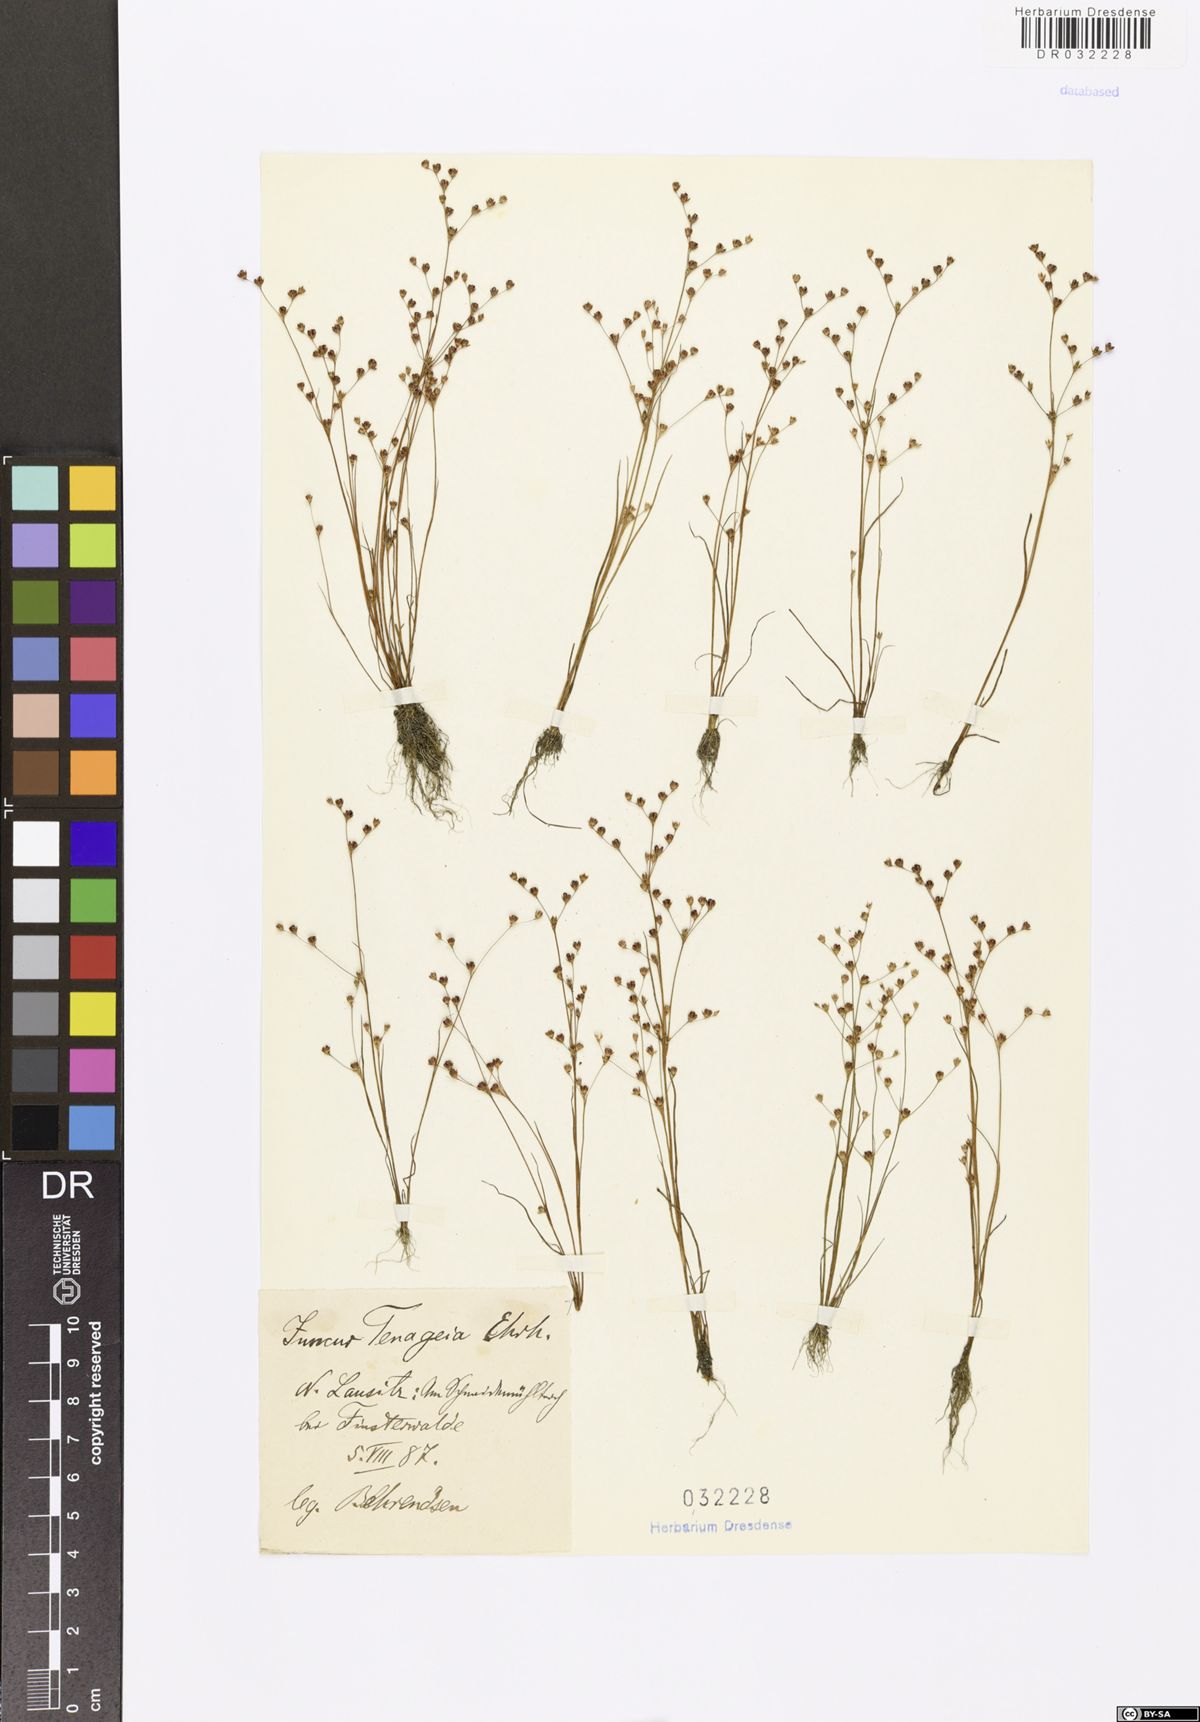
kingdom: Plantae
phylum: Tracheophyta
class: Liliopsida
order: Poales
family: Juncaceae
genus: Juncus
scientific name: Juncus tenageia
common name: Sand rush
